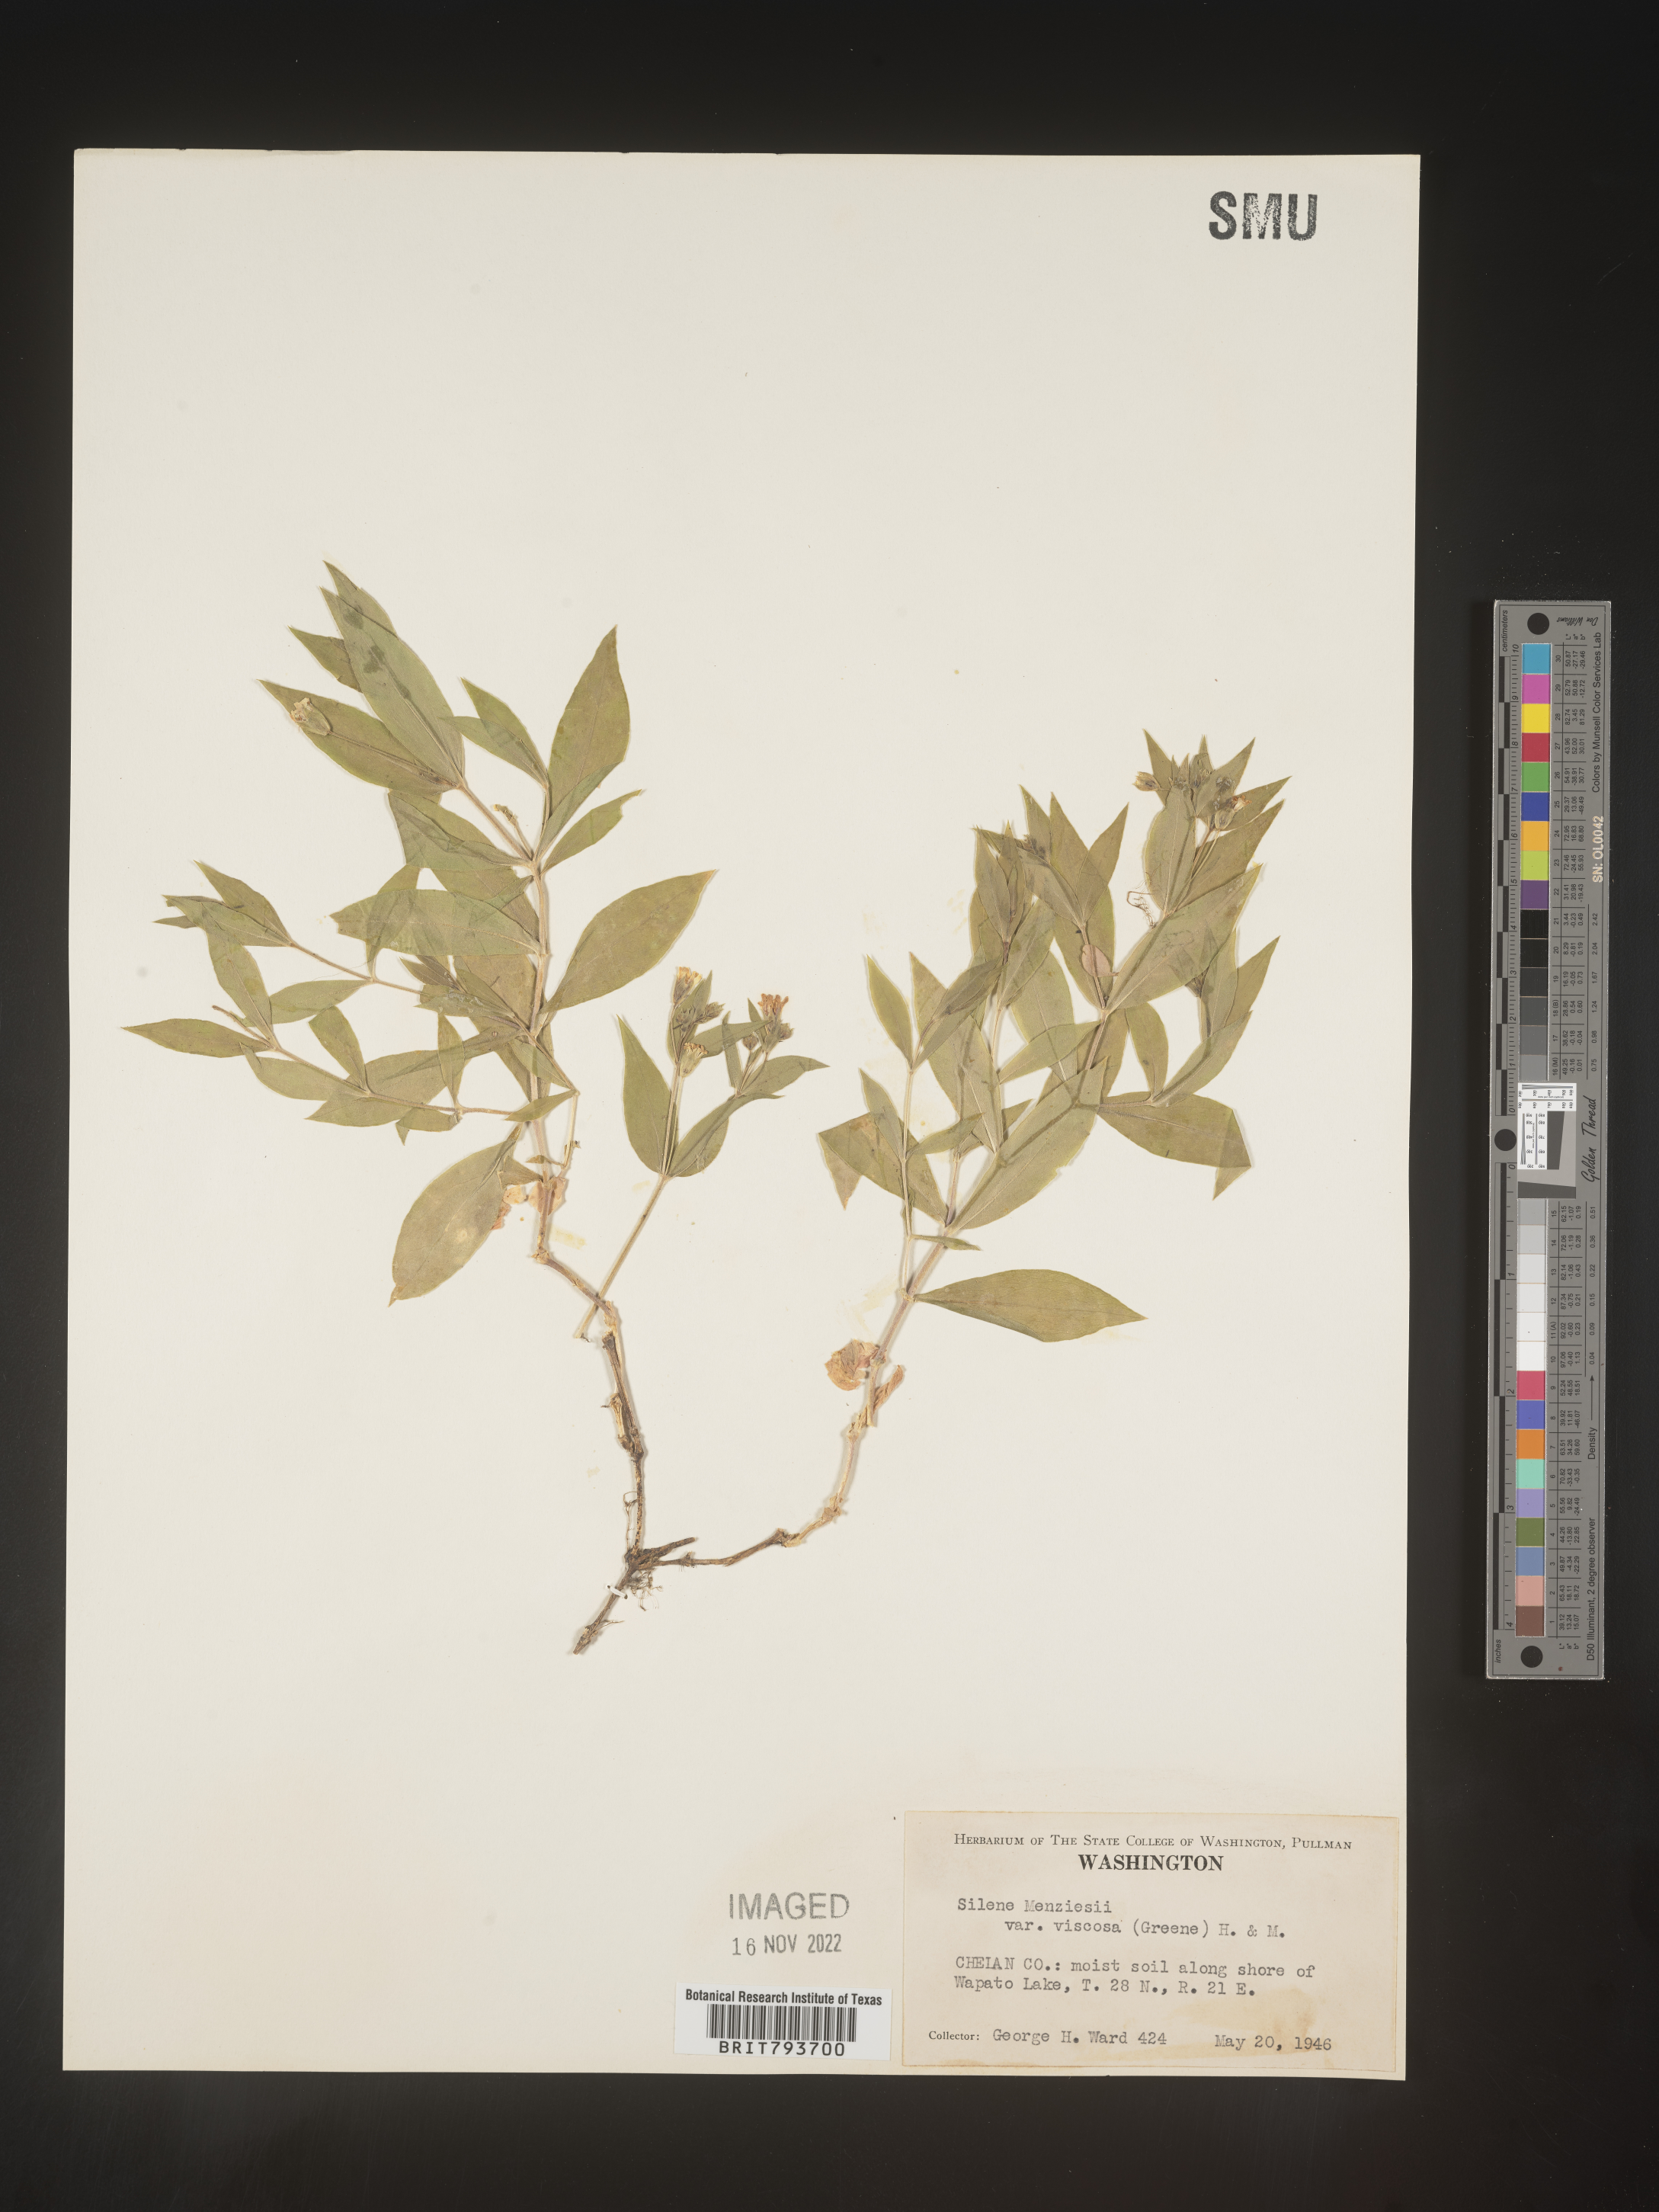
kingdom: Plantae
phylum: Tracheophyta
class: Magnoliopsida
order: Caryophyllales
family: Caryophyllaceae
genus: Silene
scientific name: Silene menziesii
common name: Menzies's catchfly
